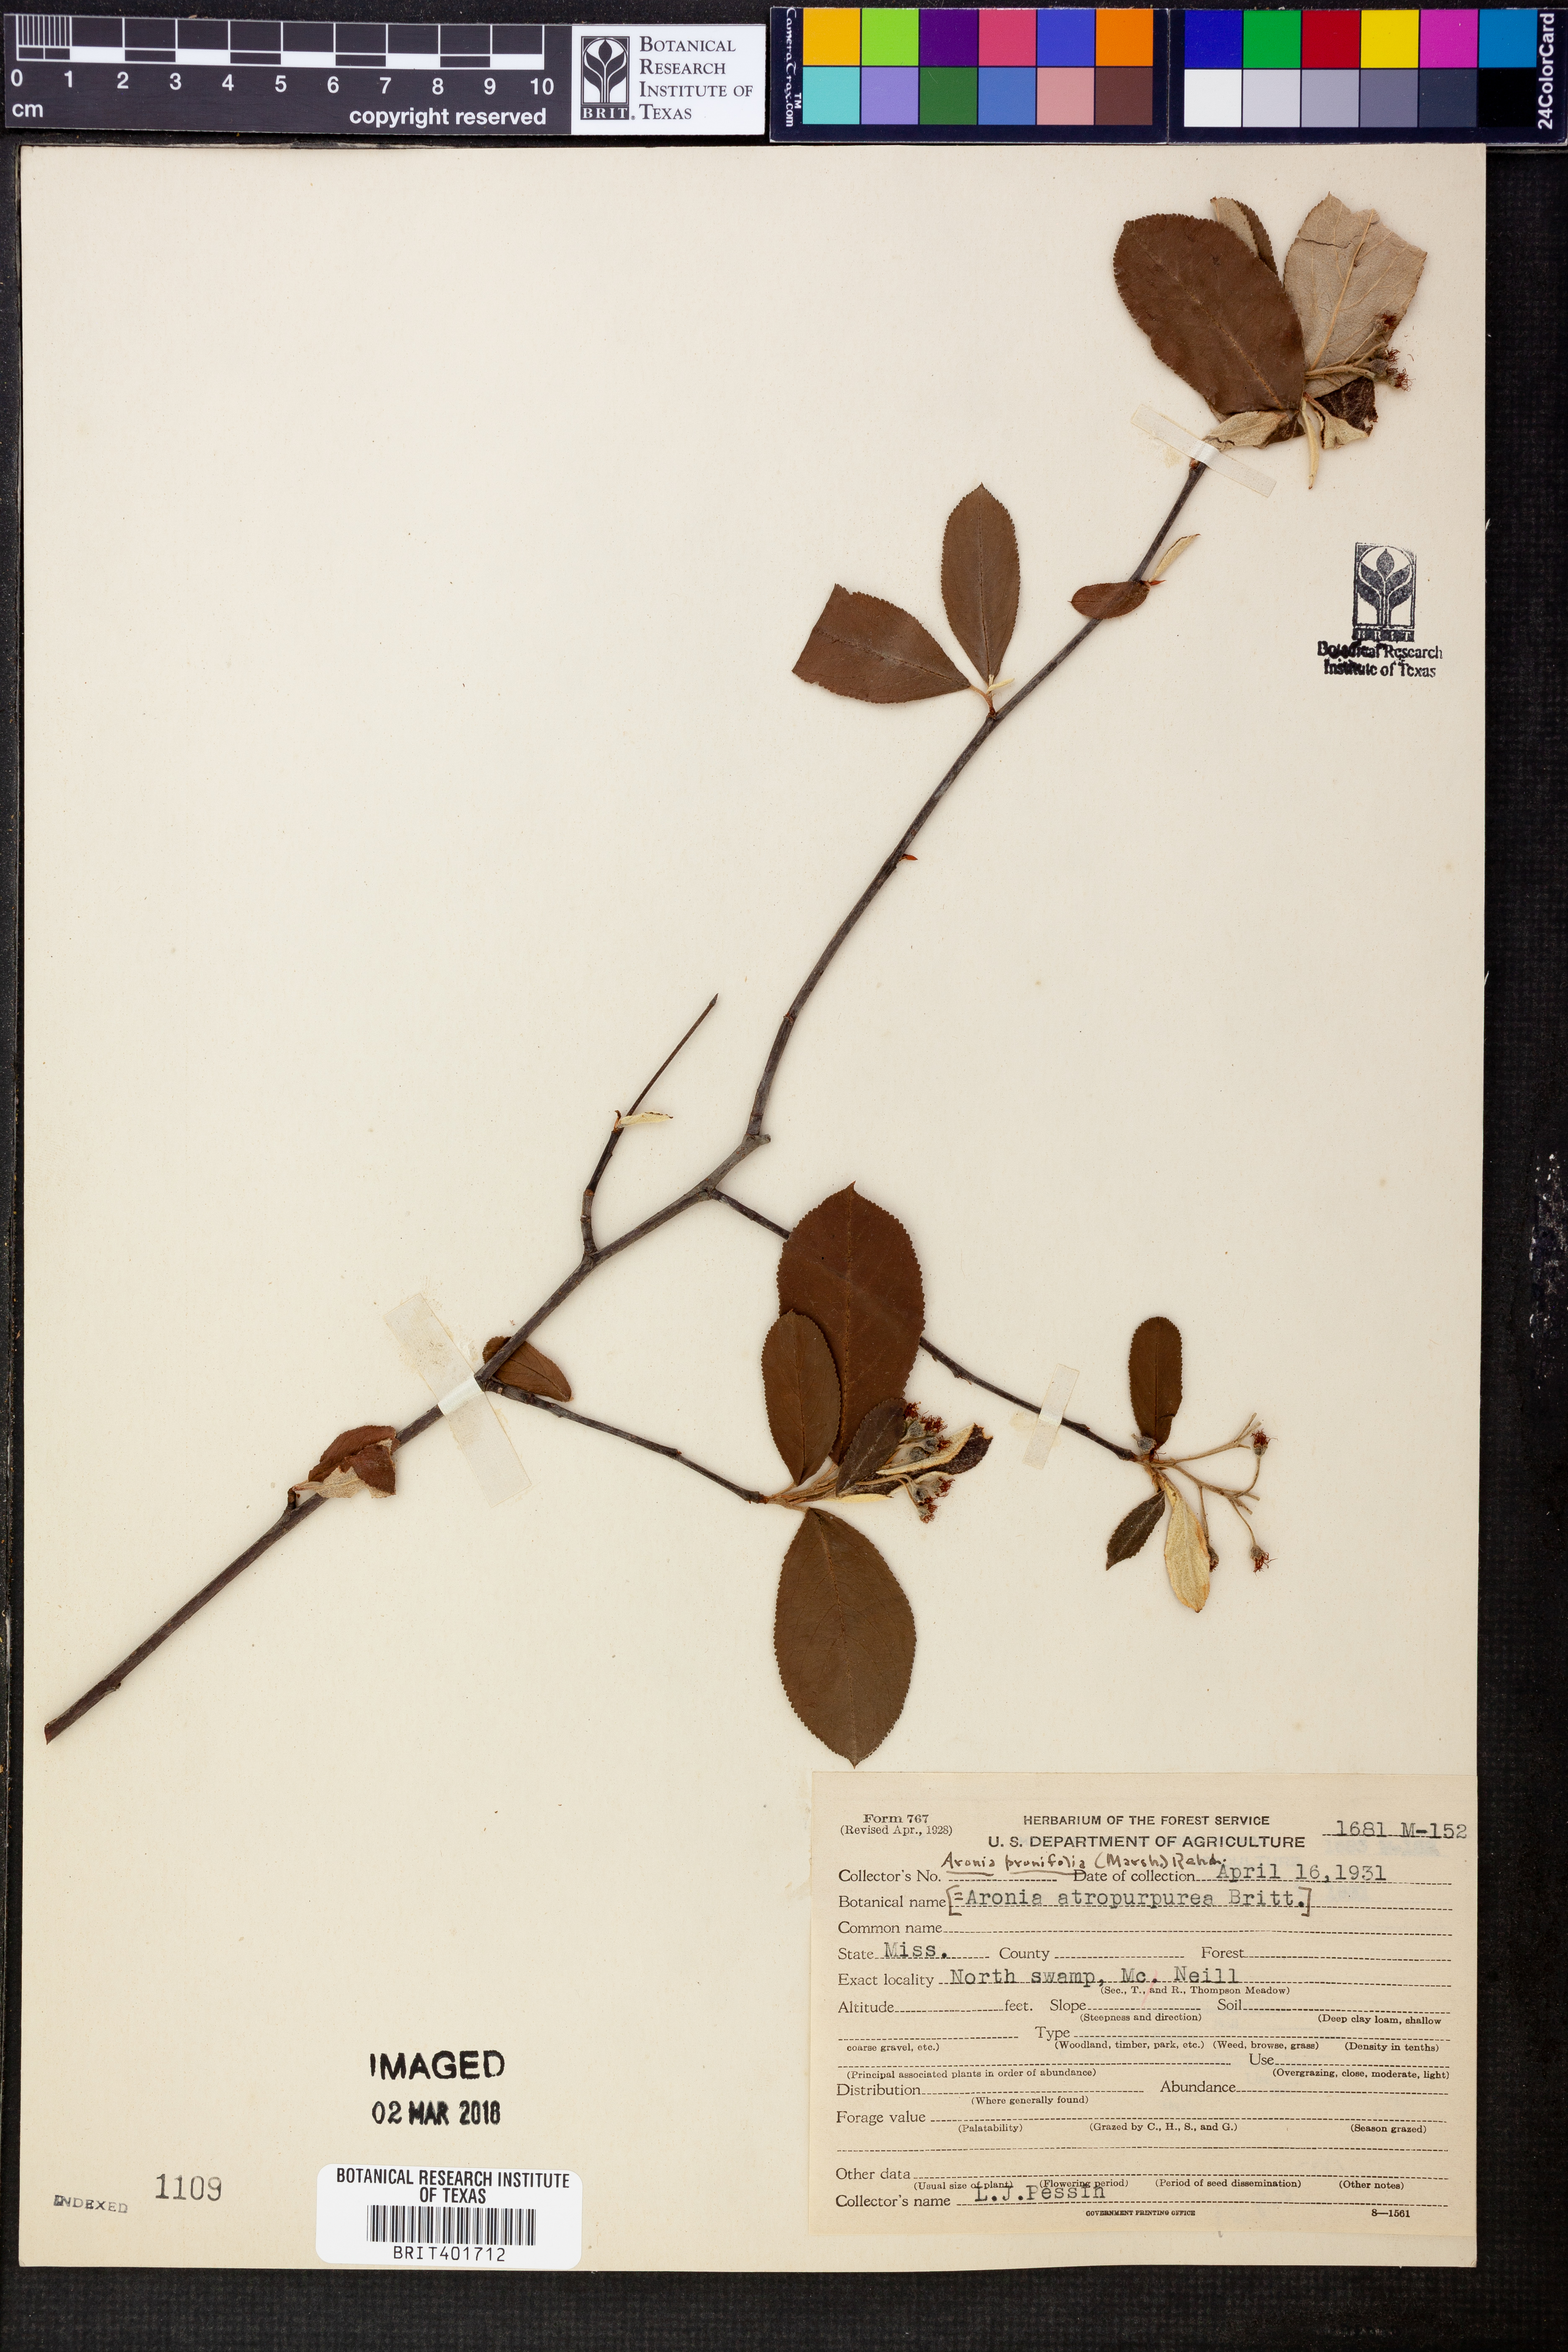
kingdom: Plantae
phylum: Tracheophyta
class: Magnoliopsida
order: Rosales
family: Rosaceae
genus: Aronia
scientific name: Aronia prunifolia
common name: Purple chokeberry
